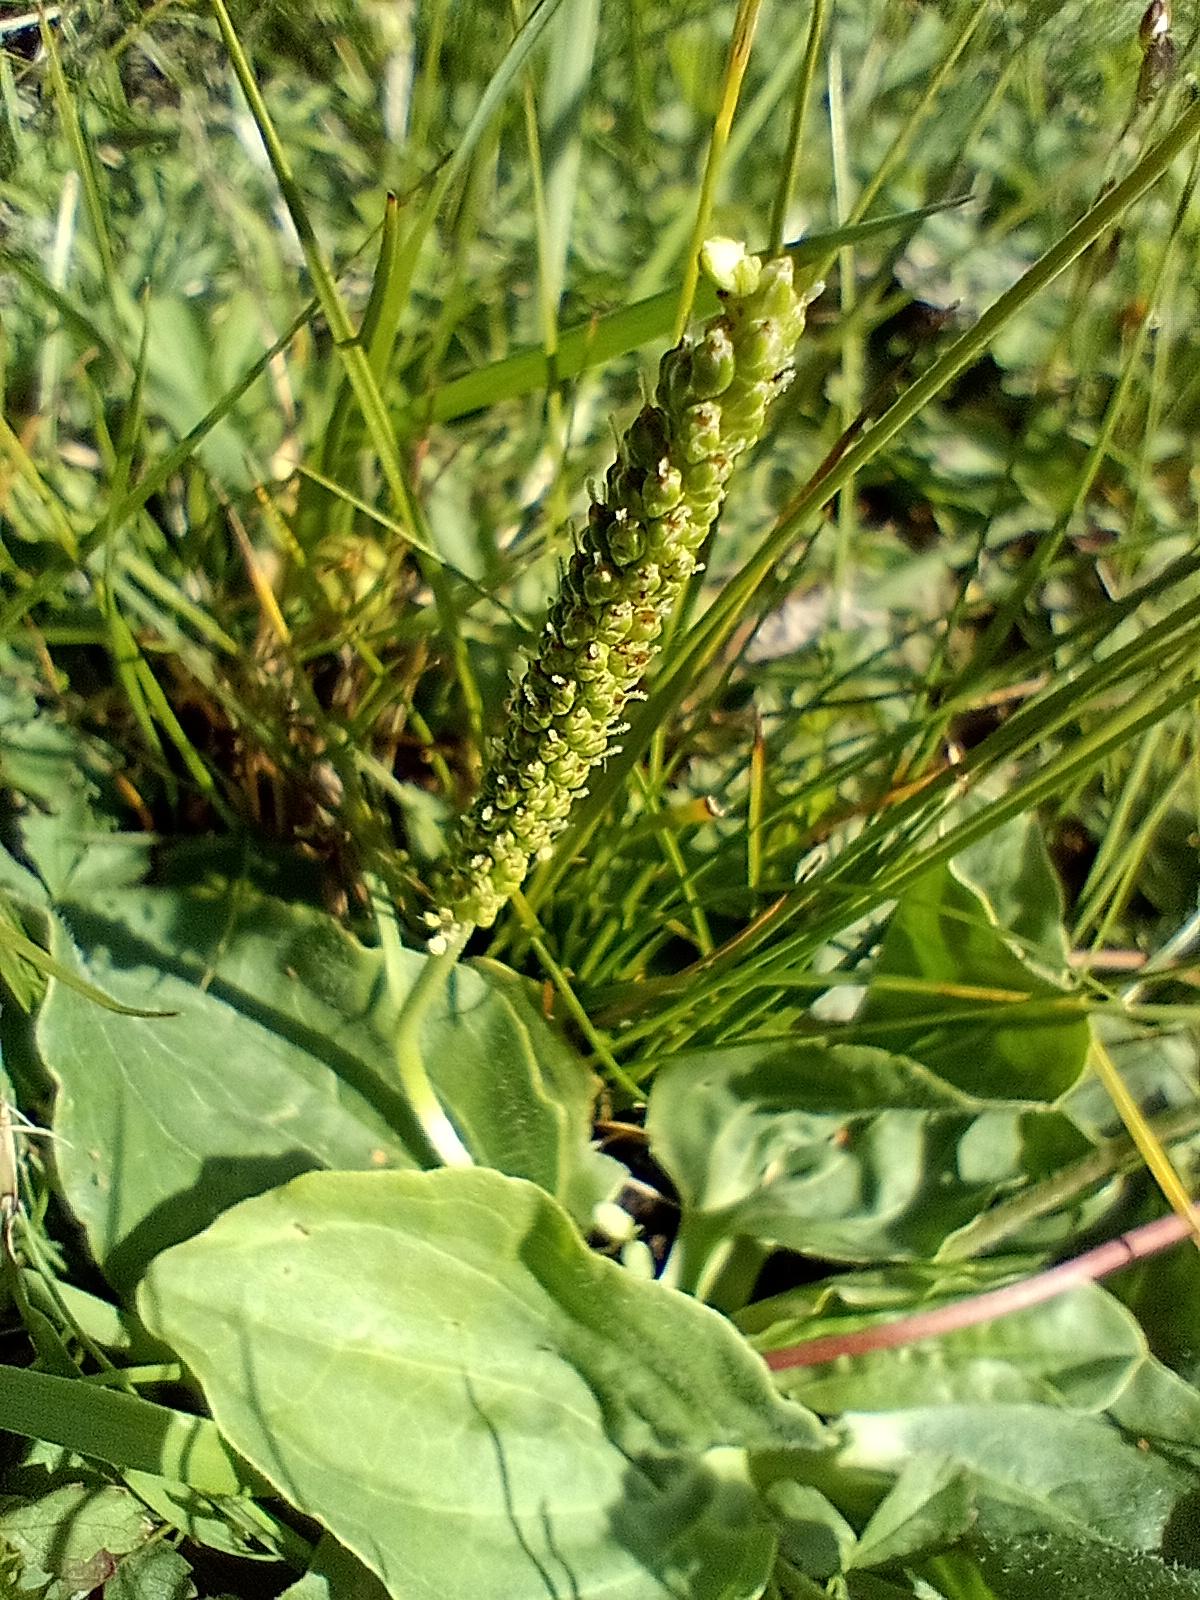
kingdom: Plantae
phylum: Tracheophyta
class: Magnoliopsida
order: Lamiales
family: Plantaginaceae
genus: Plantago
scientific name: Plantago major
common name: Glat vejbred
